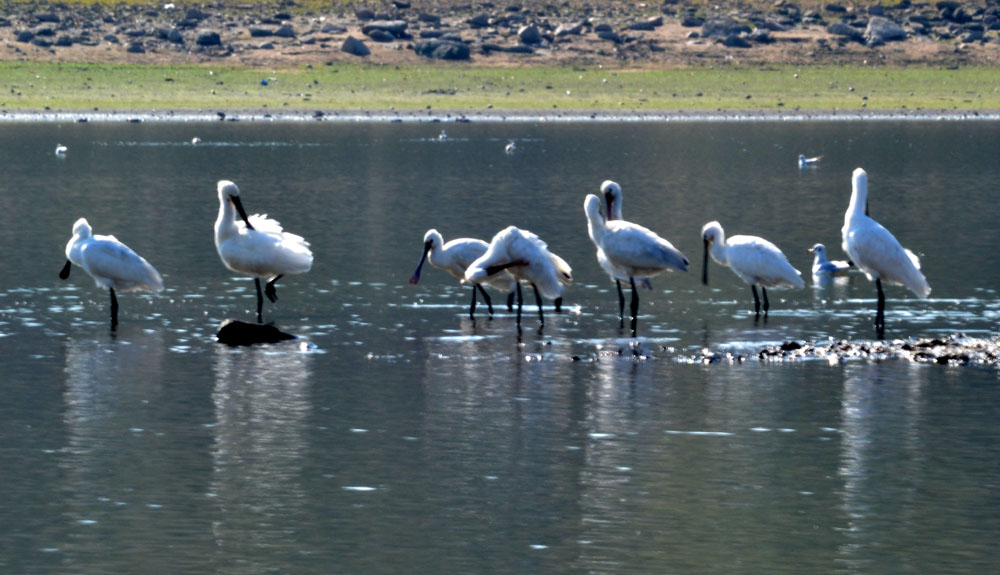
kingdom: Animalia
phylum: Chordata
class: Aves
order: Pelecaniformes
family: Threskiornithidae
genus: Platalea
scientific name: Platalea leucorodia
